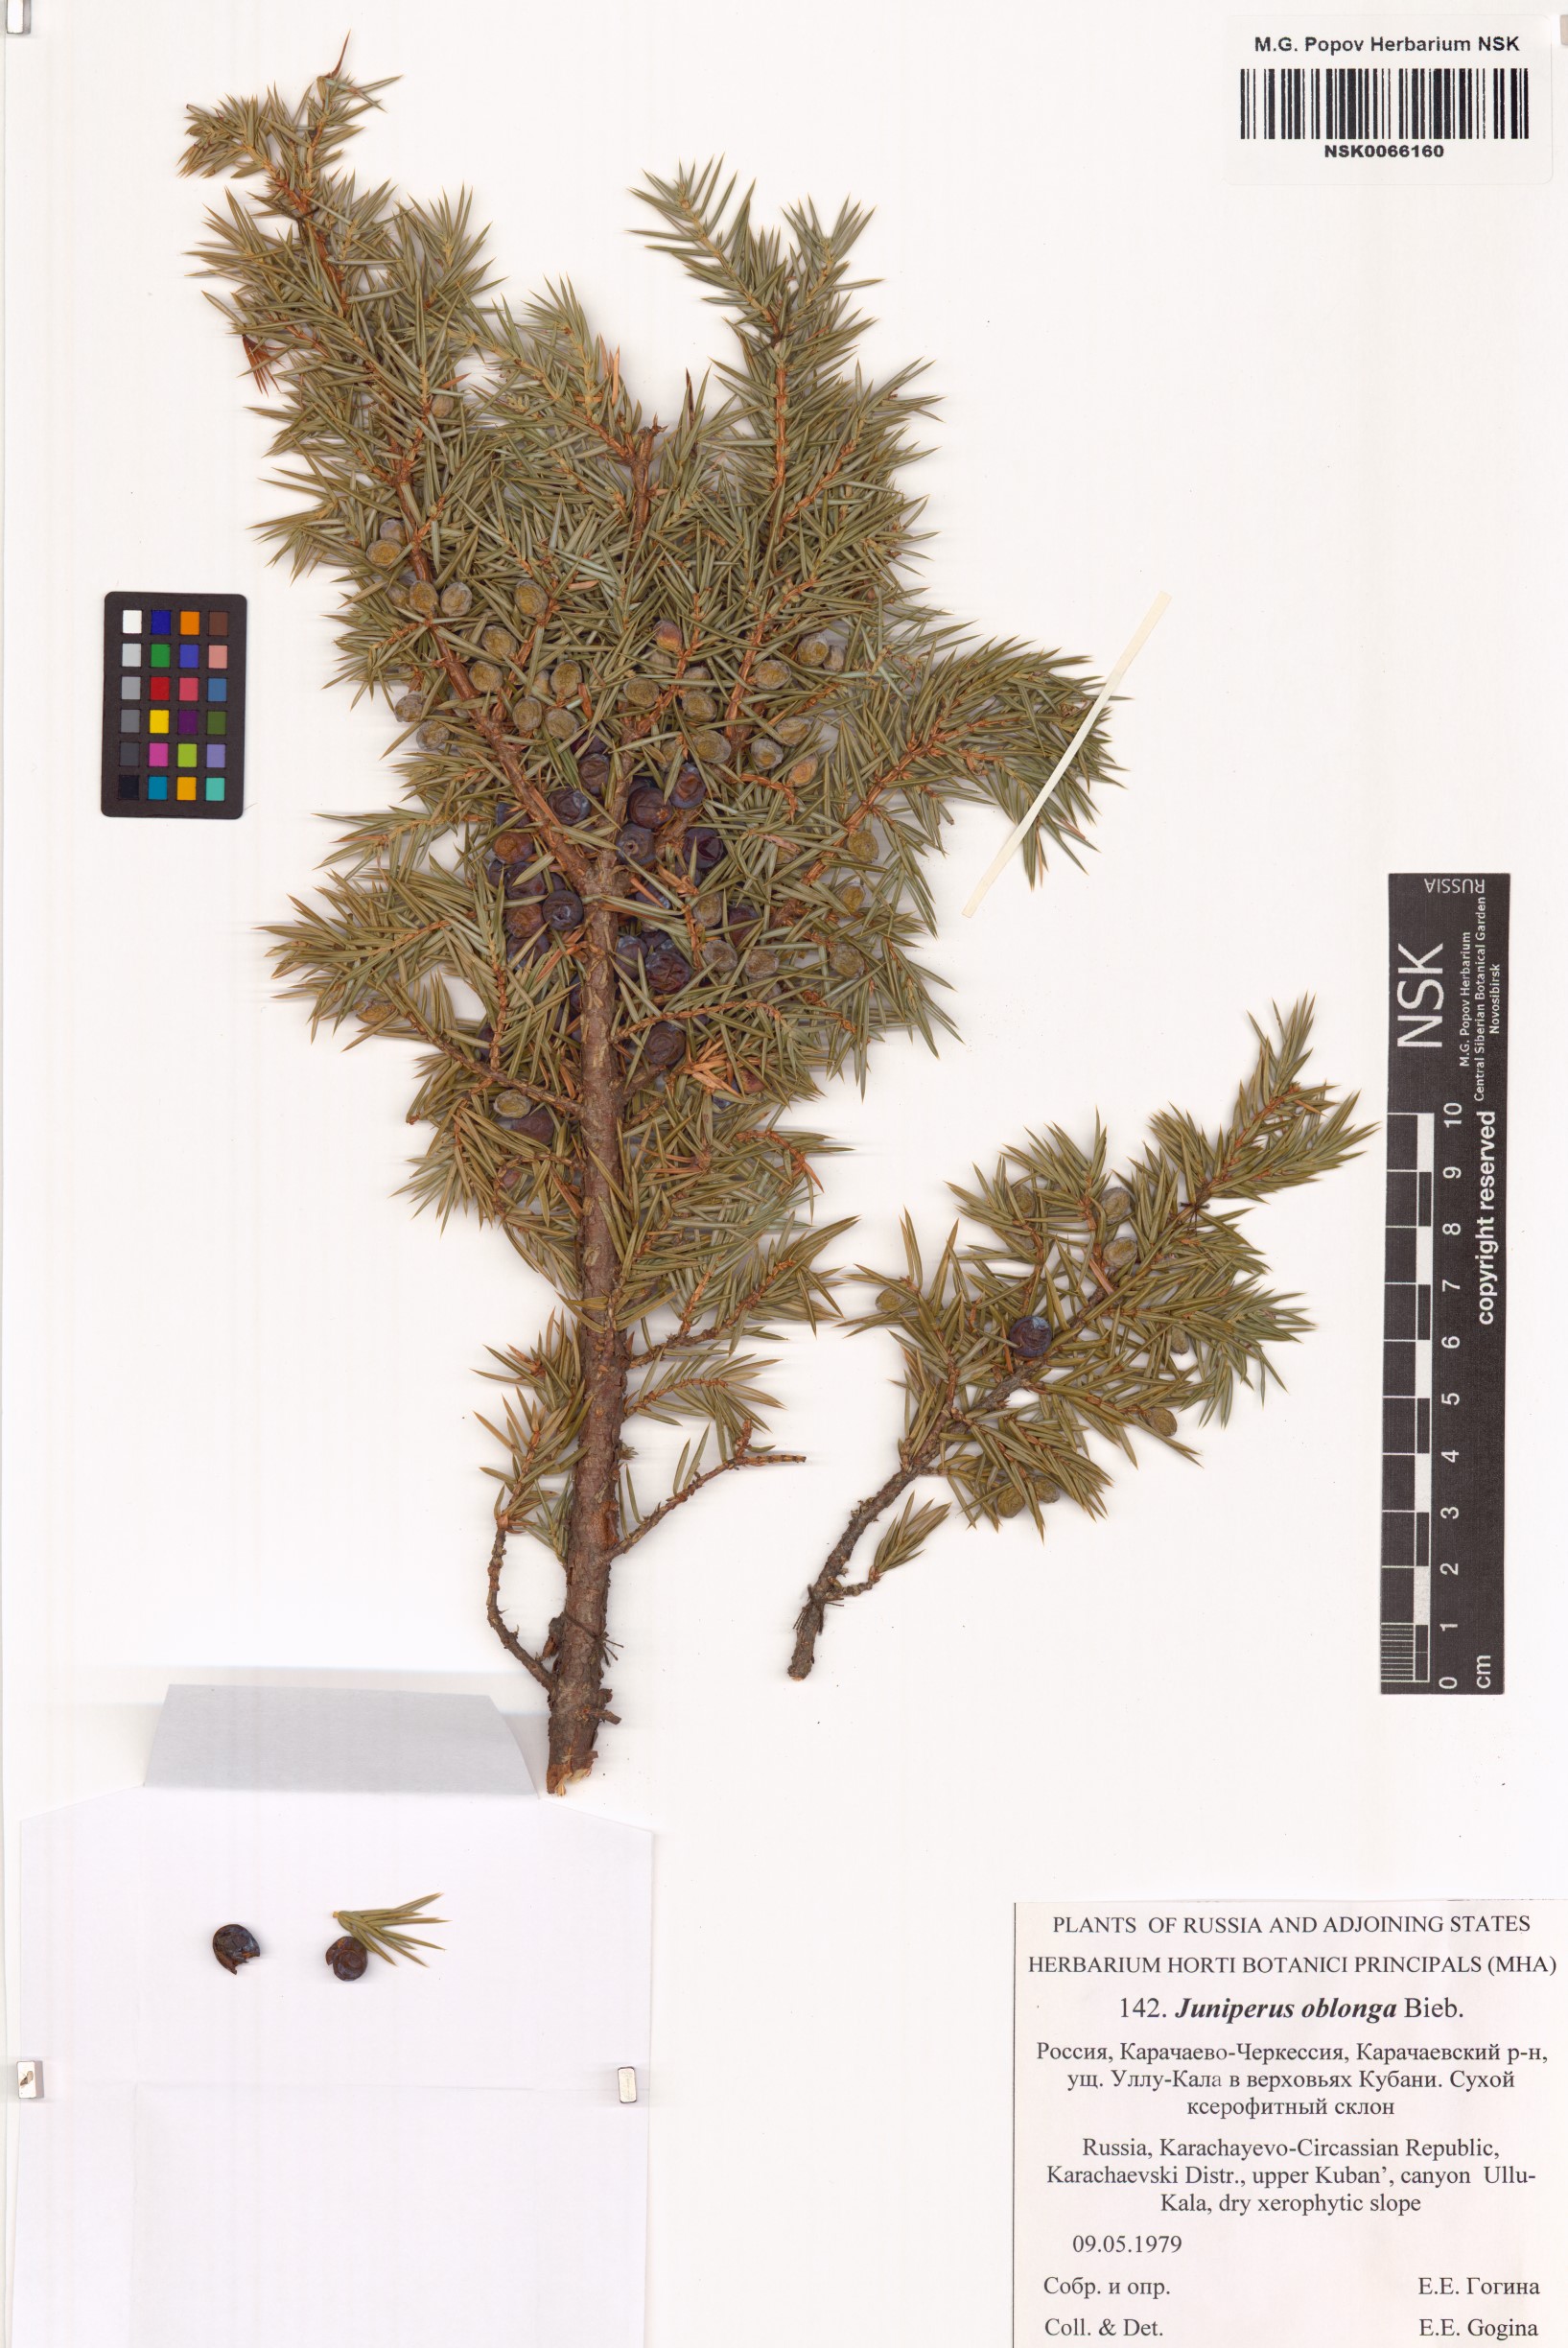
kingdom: Plantae
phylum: Tracheophyta
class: Pinopsida
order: Pinales
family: Cupressaceae
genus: Juniperus
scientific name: Juniperus communis
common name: Common juniper
